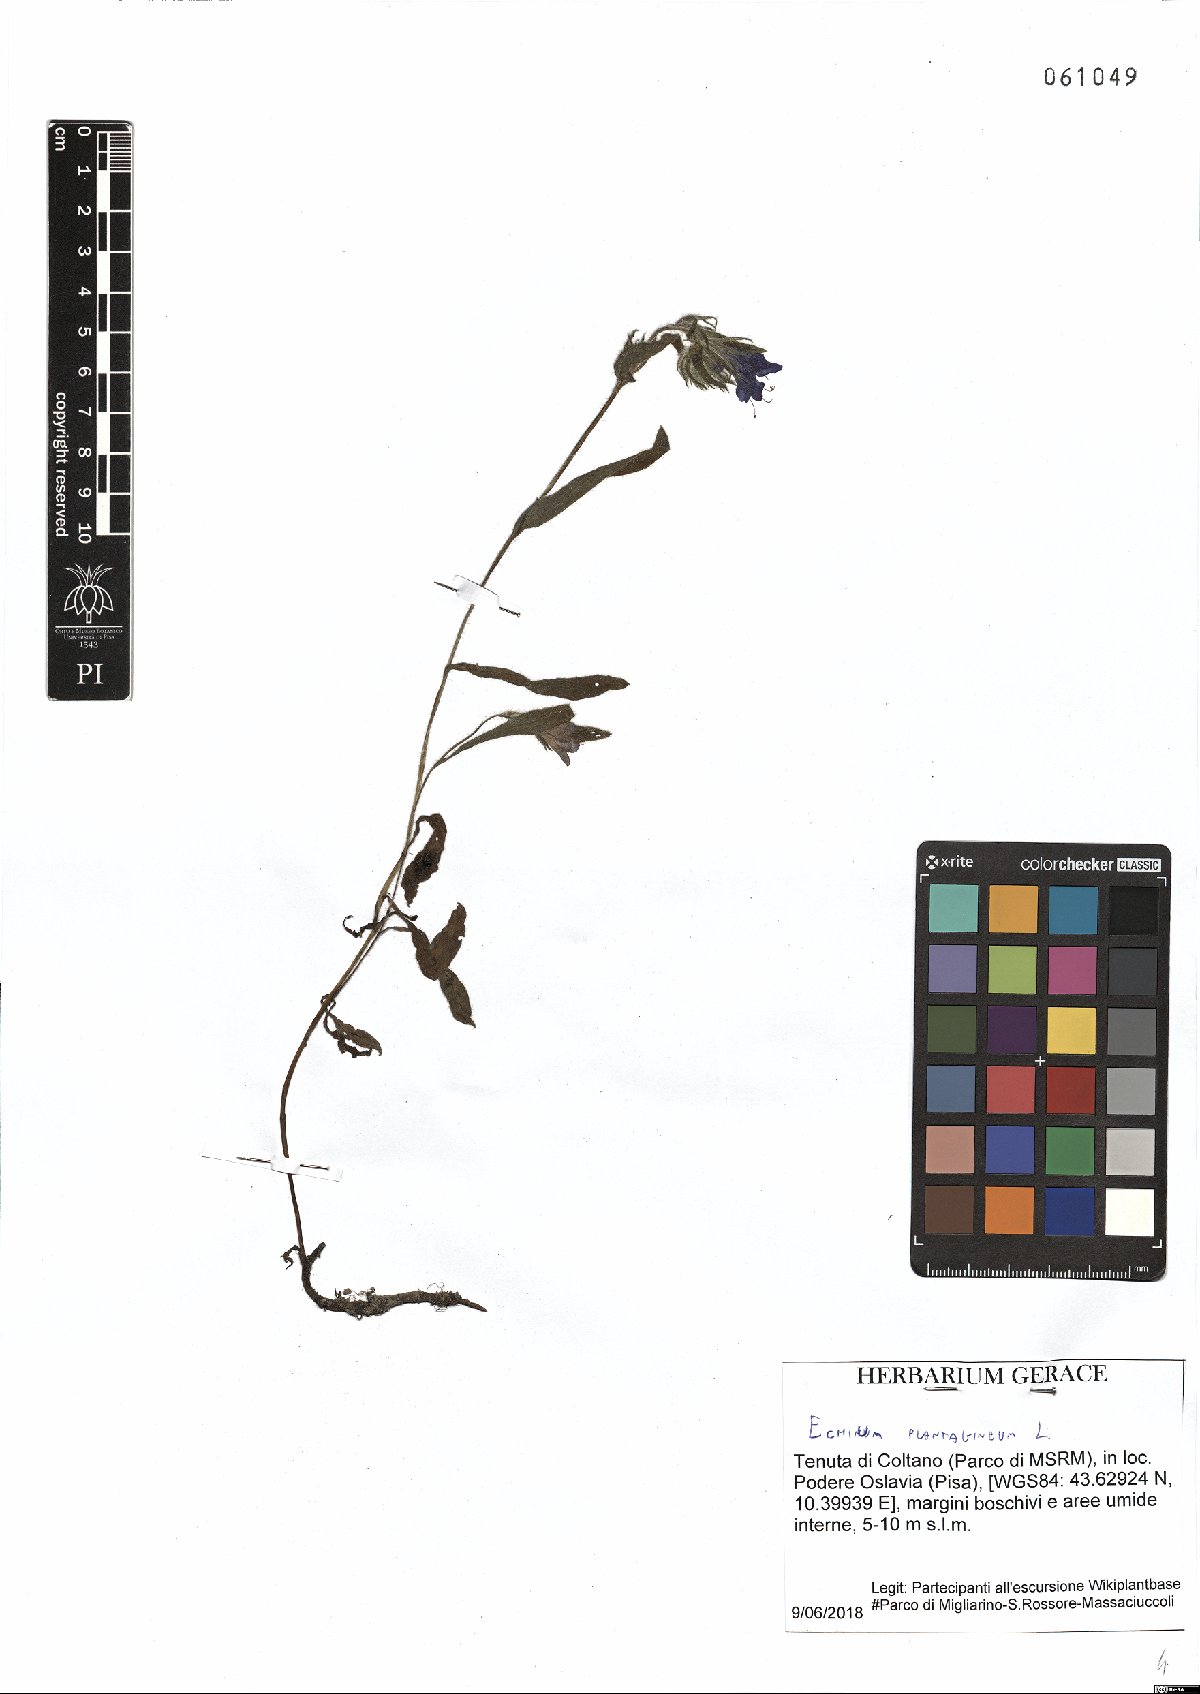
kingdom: Plantae
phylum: Tracheophyta
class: Magnoliopsida
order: Boraginales
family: Boraginaceae
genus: Echium
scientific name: Echium plantagineum
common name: Purple viper's-bugloss
